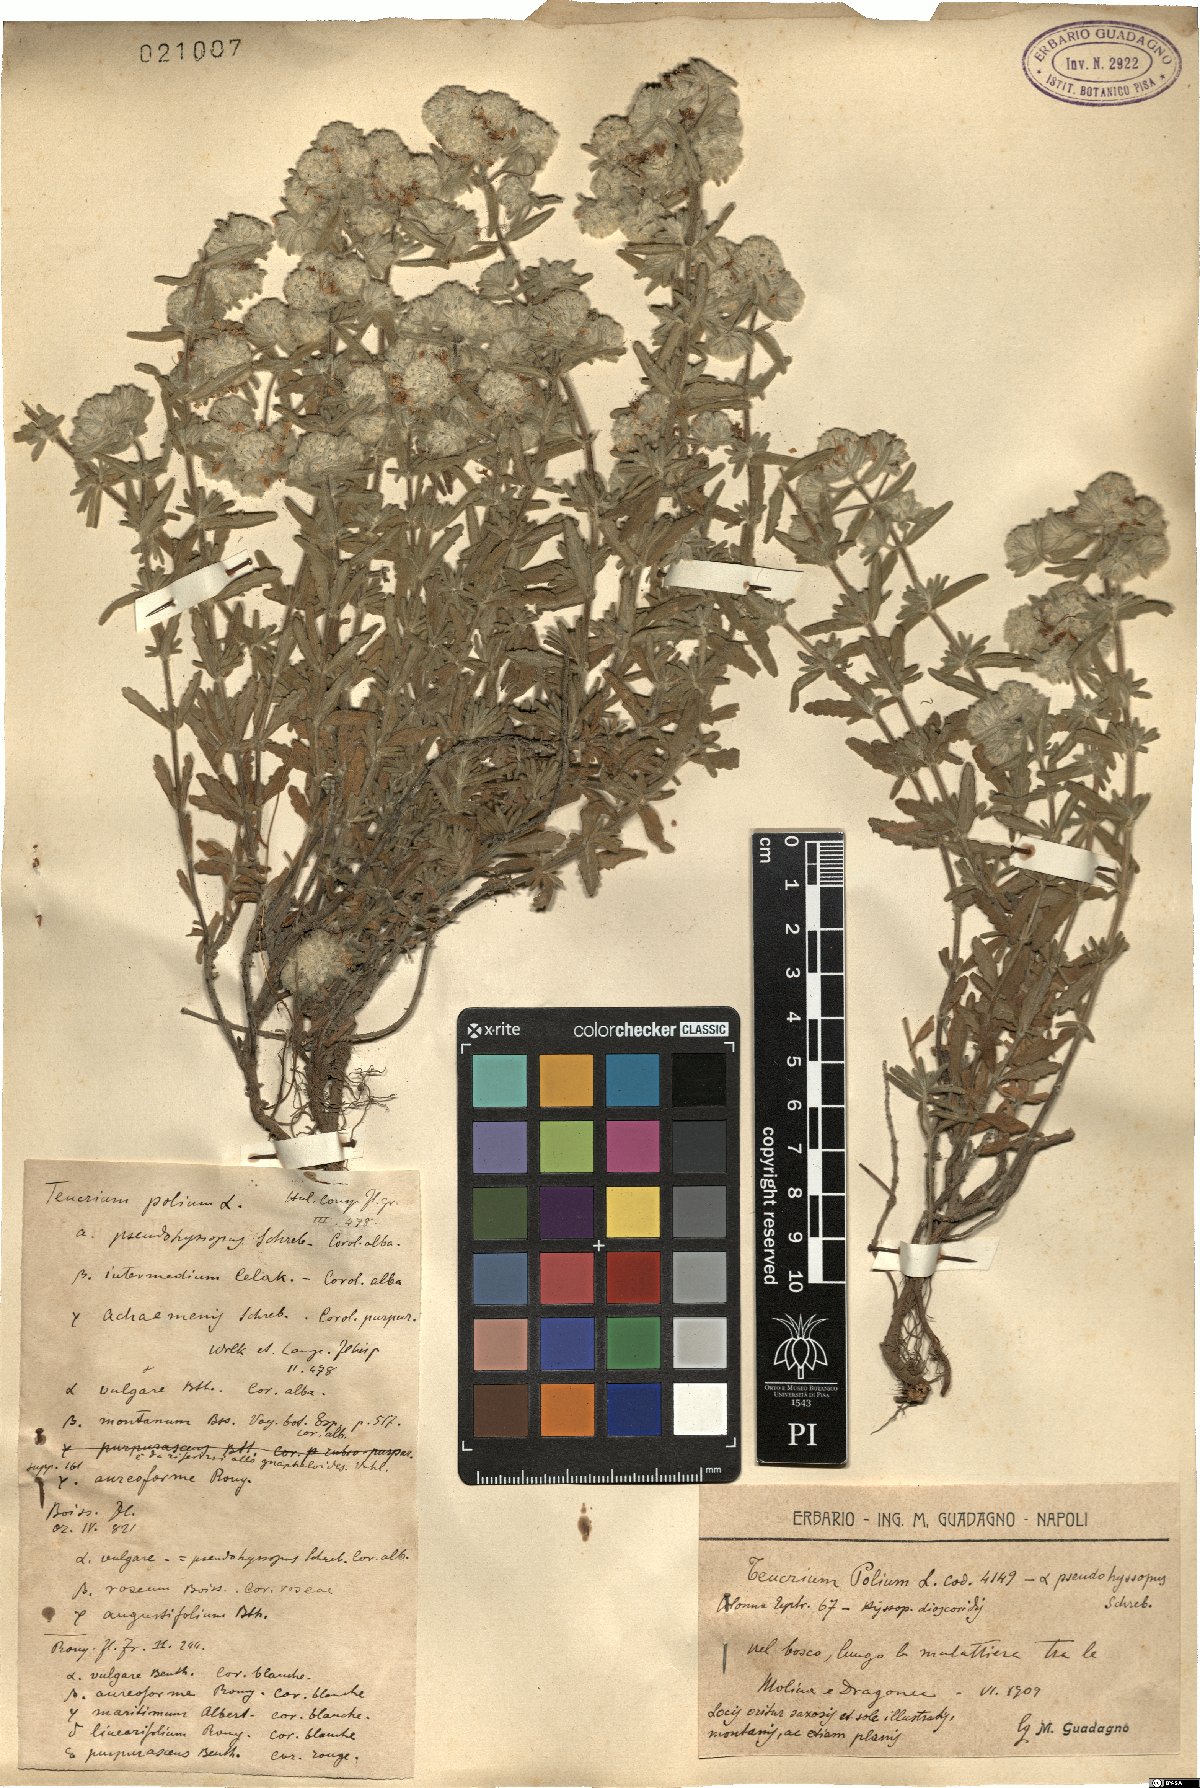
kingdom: Plantae
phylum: Tracheophyta
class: Magnoliopsida
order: Lamiales
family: Lamiaceae
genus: Teucrium
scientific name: Teucrium polium
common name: Poley
